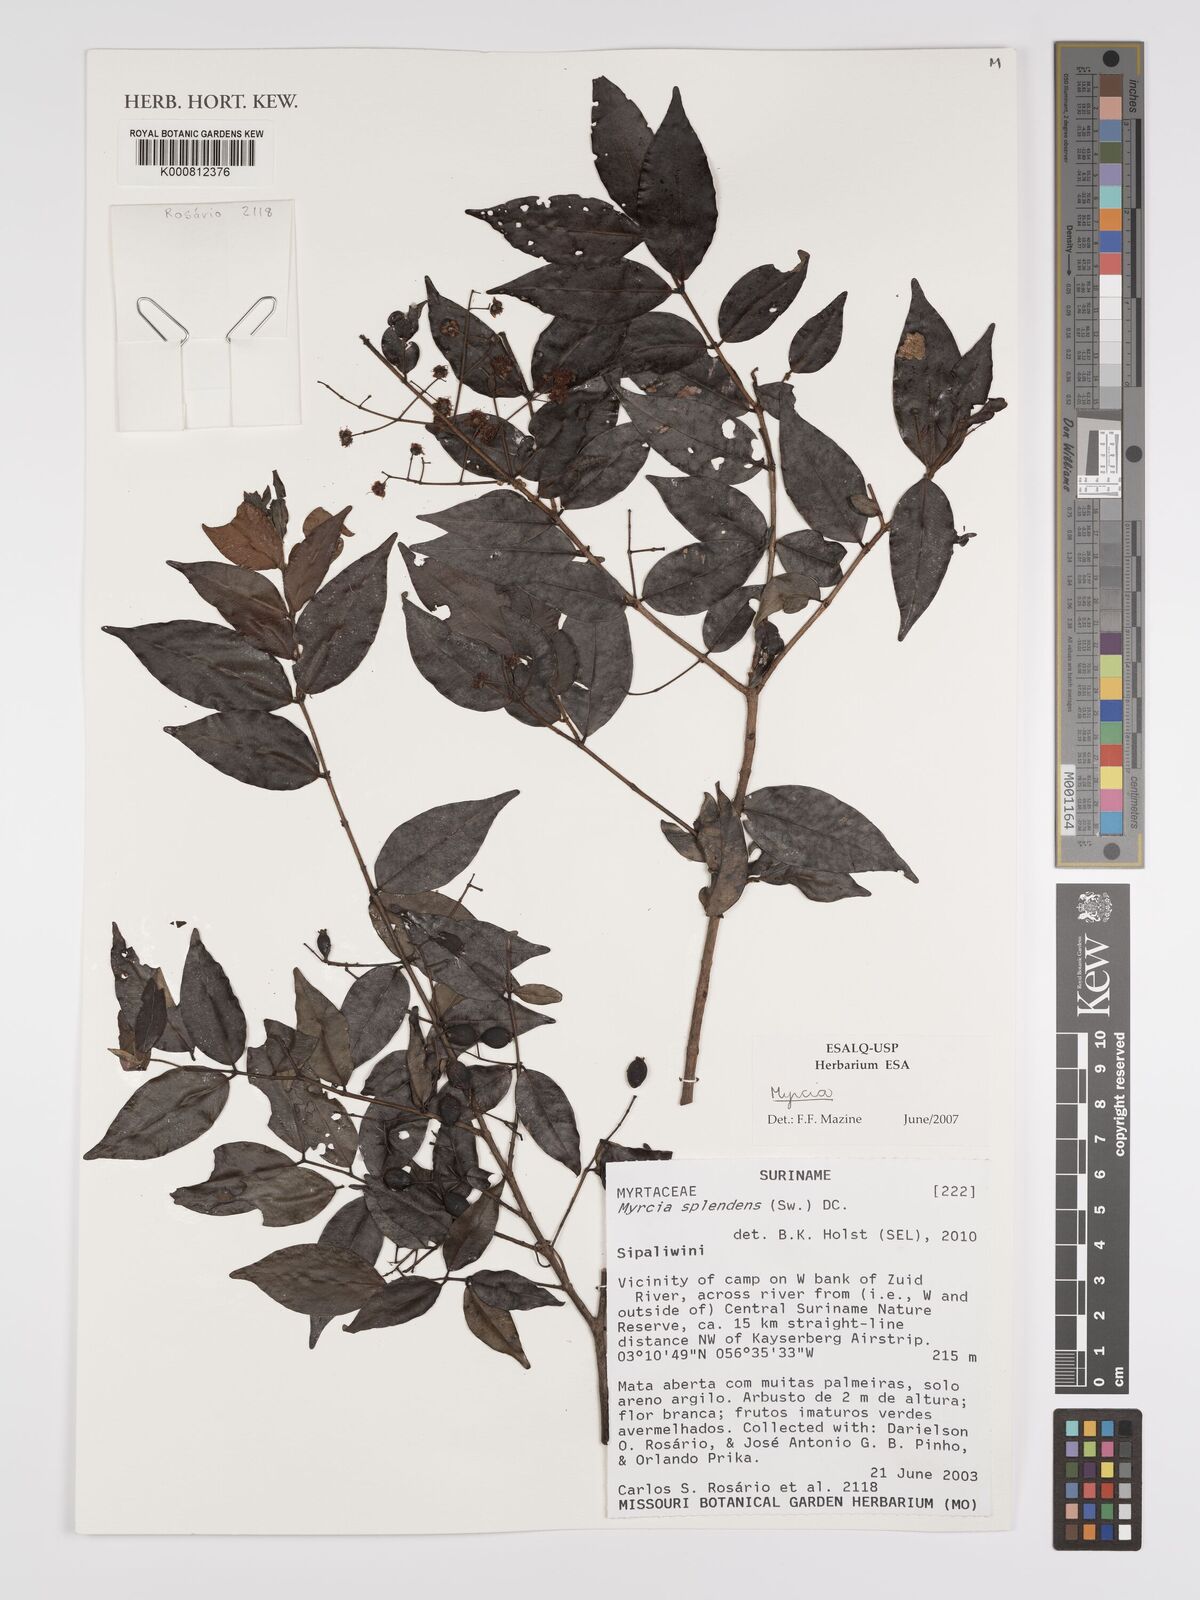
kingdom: Plantae
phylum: Tracheophyta
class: Magnoliopsida
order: Myrtales
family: Myrtaceae
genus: Myrcia
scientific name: Myrcia splendens
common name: Surinam cherry
